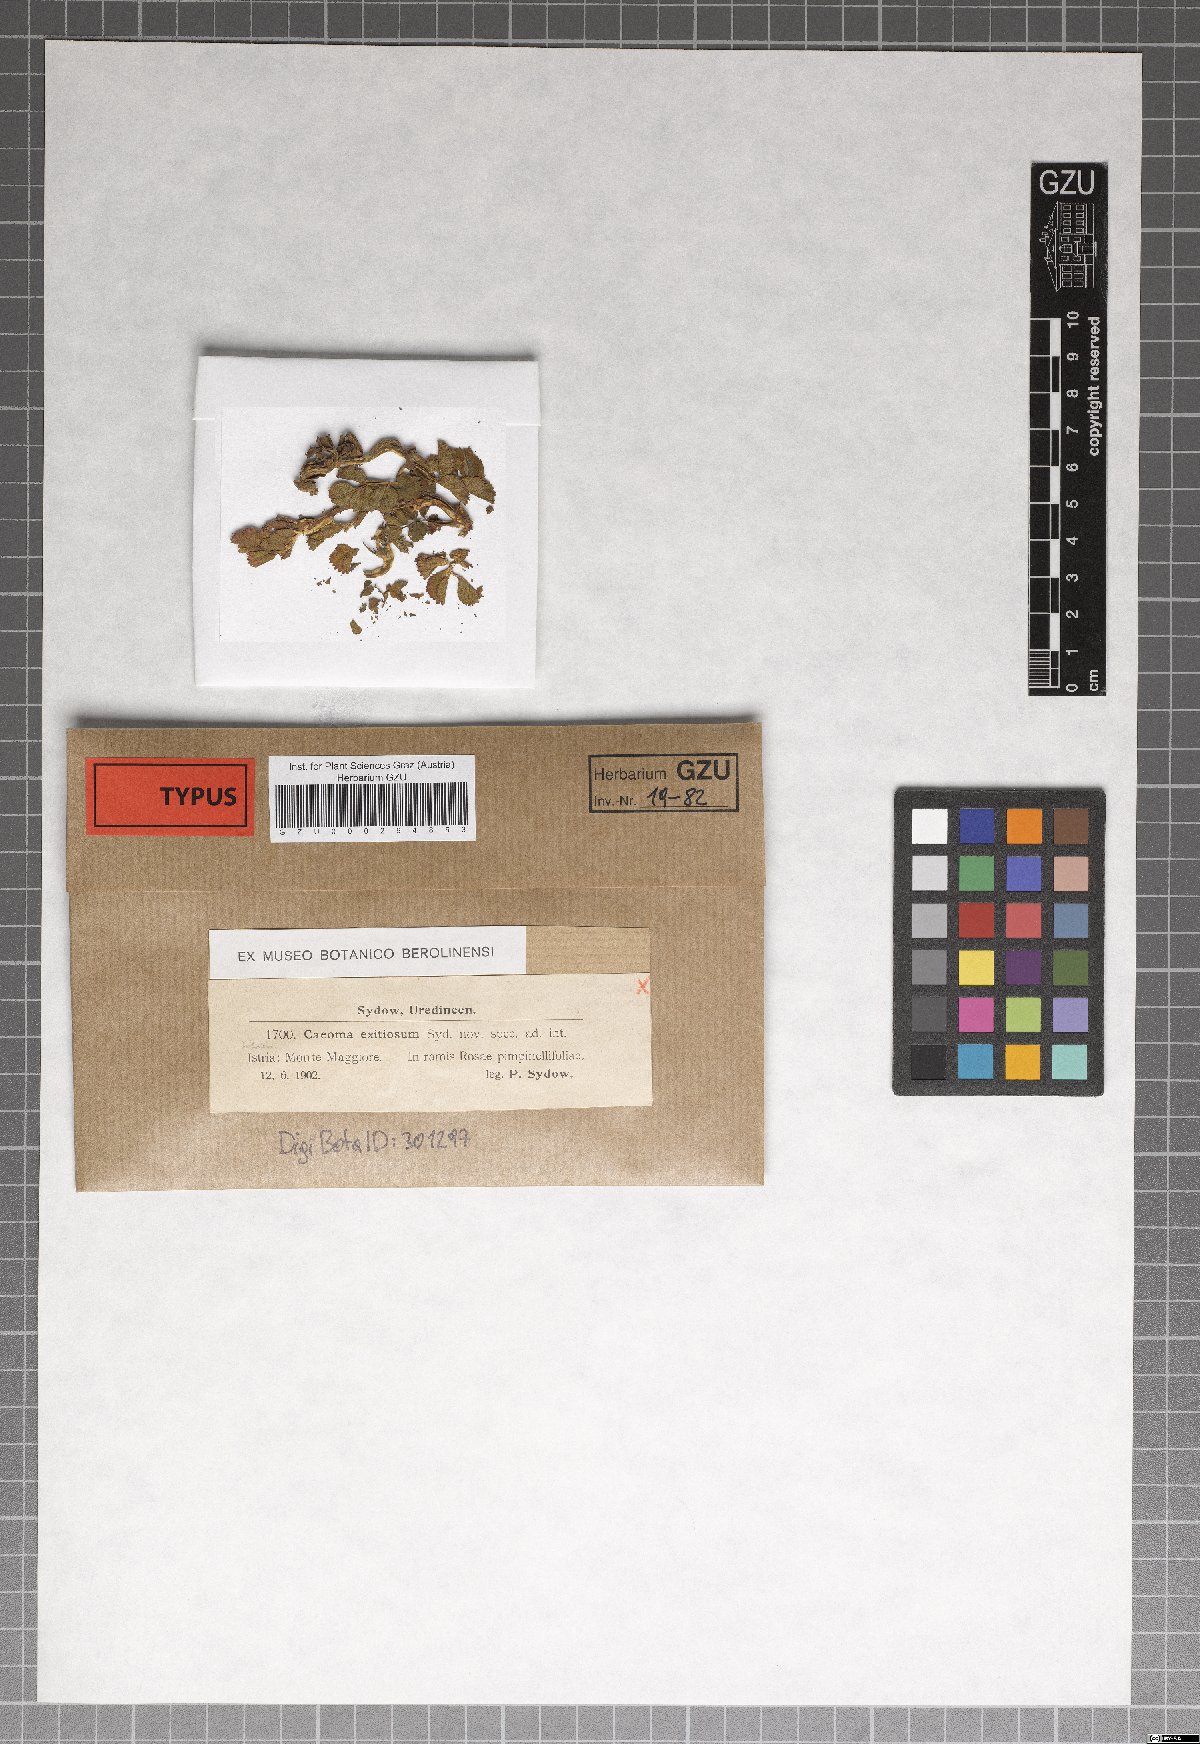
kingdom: Fungi
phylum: Basidiomycota
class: Pucciniomycetes
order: Pucciniales
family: Pucciniaceae
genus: Caeoma
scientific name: Caeoma exitiosum
